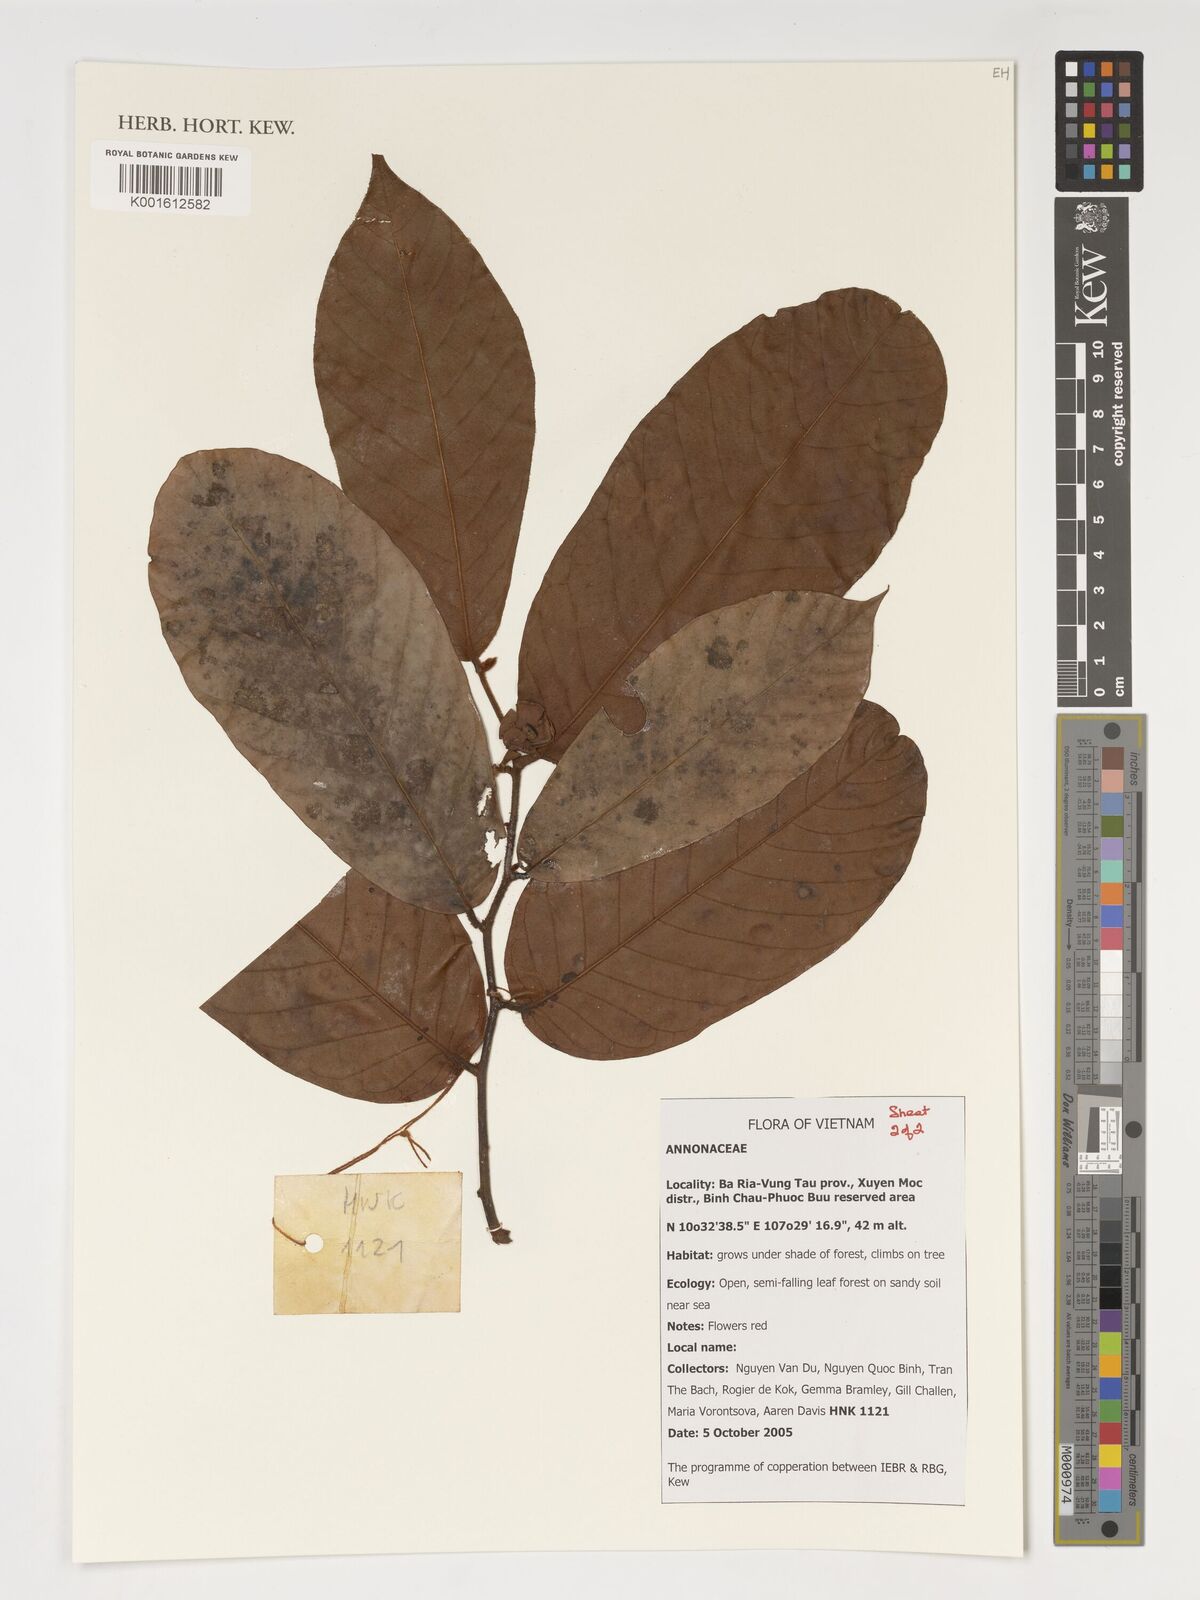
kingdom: Plantae
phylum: Tracheophyta
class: Magnoliopsida
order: Magnoliales
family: Annonaceae
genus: Uvaria
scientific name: Uvaria
